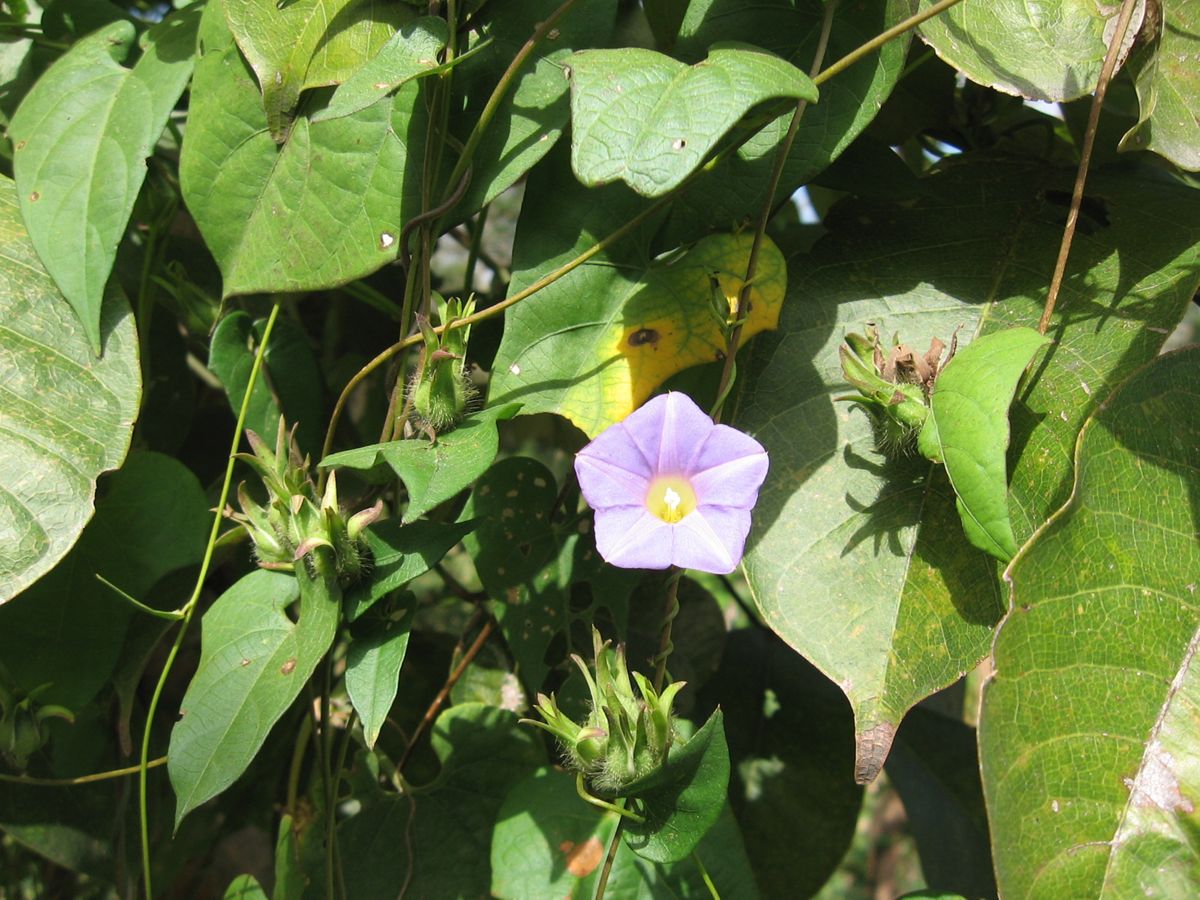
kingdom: Plantae
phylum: Tracheophyta
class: Magnoliopsida
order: Solanales
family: Convolvulaceae
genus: Ipomoea
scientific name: Ipomoea
